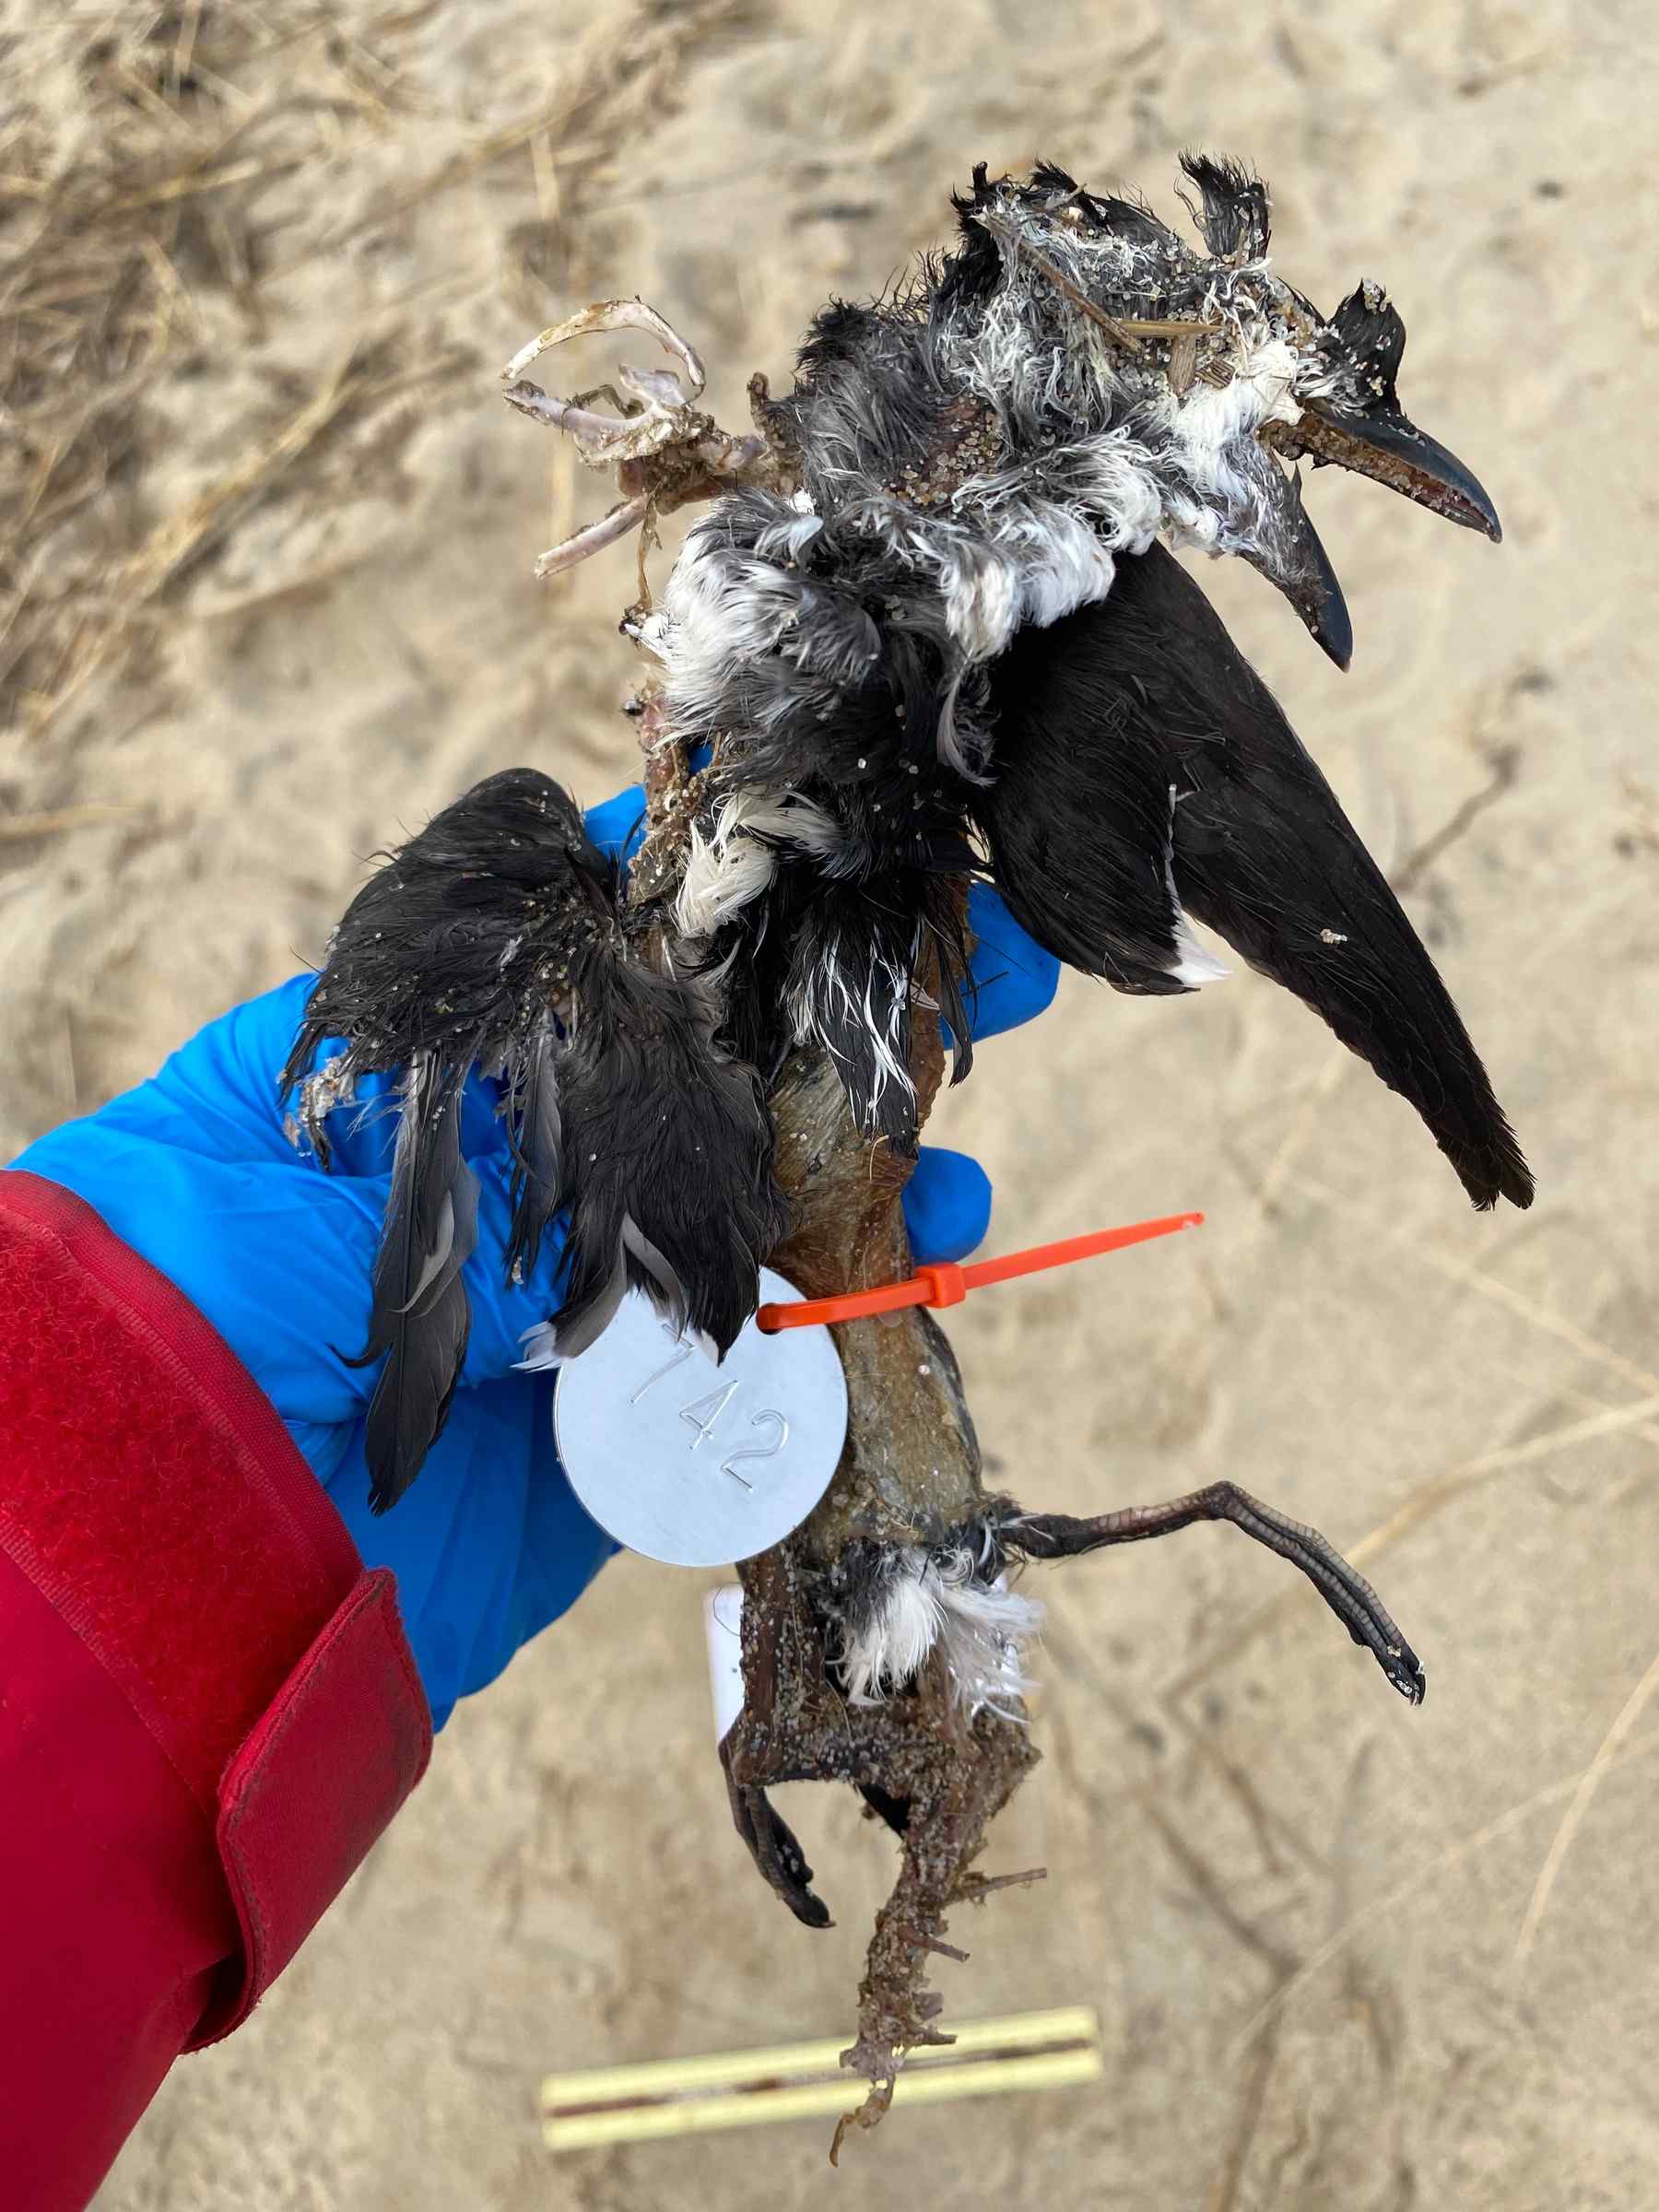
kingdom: Animalia
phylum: Chordata
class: Aves
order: Charadriiformes
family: Alcidae
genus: Alca
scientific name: Alca torda
